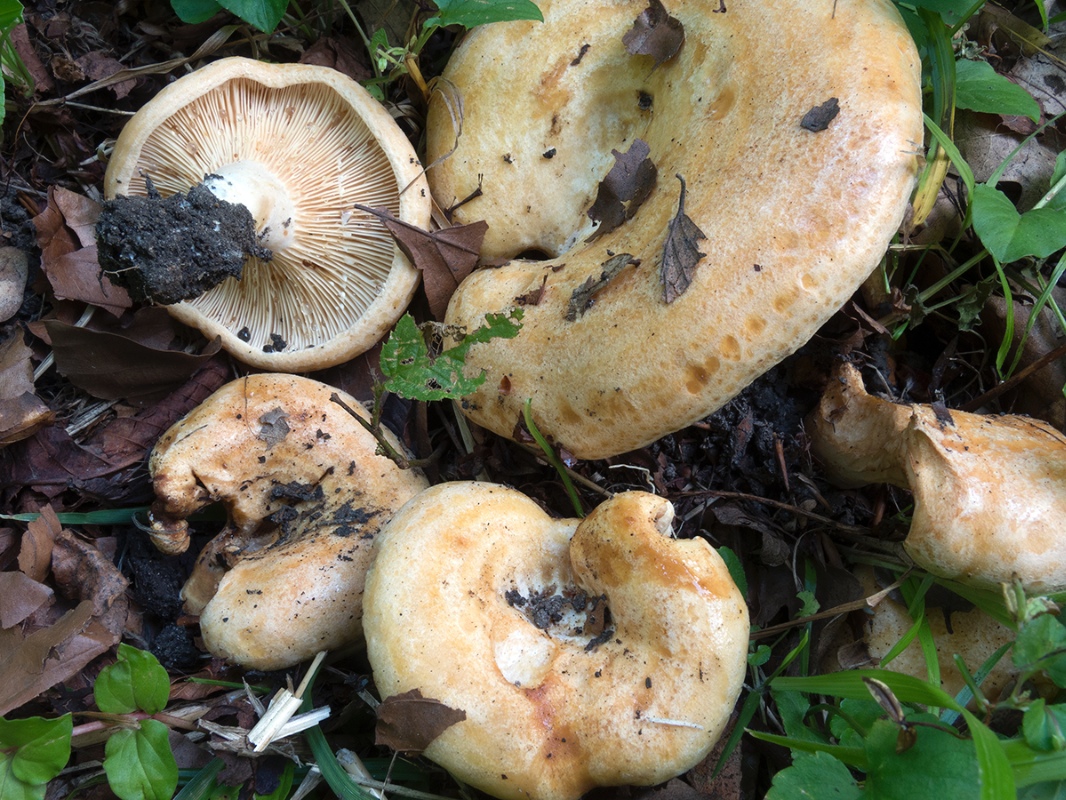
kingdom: Fungi
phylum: Basidiomycota
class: Agaricomycetes
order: Russulales
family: Russulaceae
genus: Lactarius
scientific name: Lactarius acerrimus
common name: brændende mælkehat
